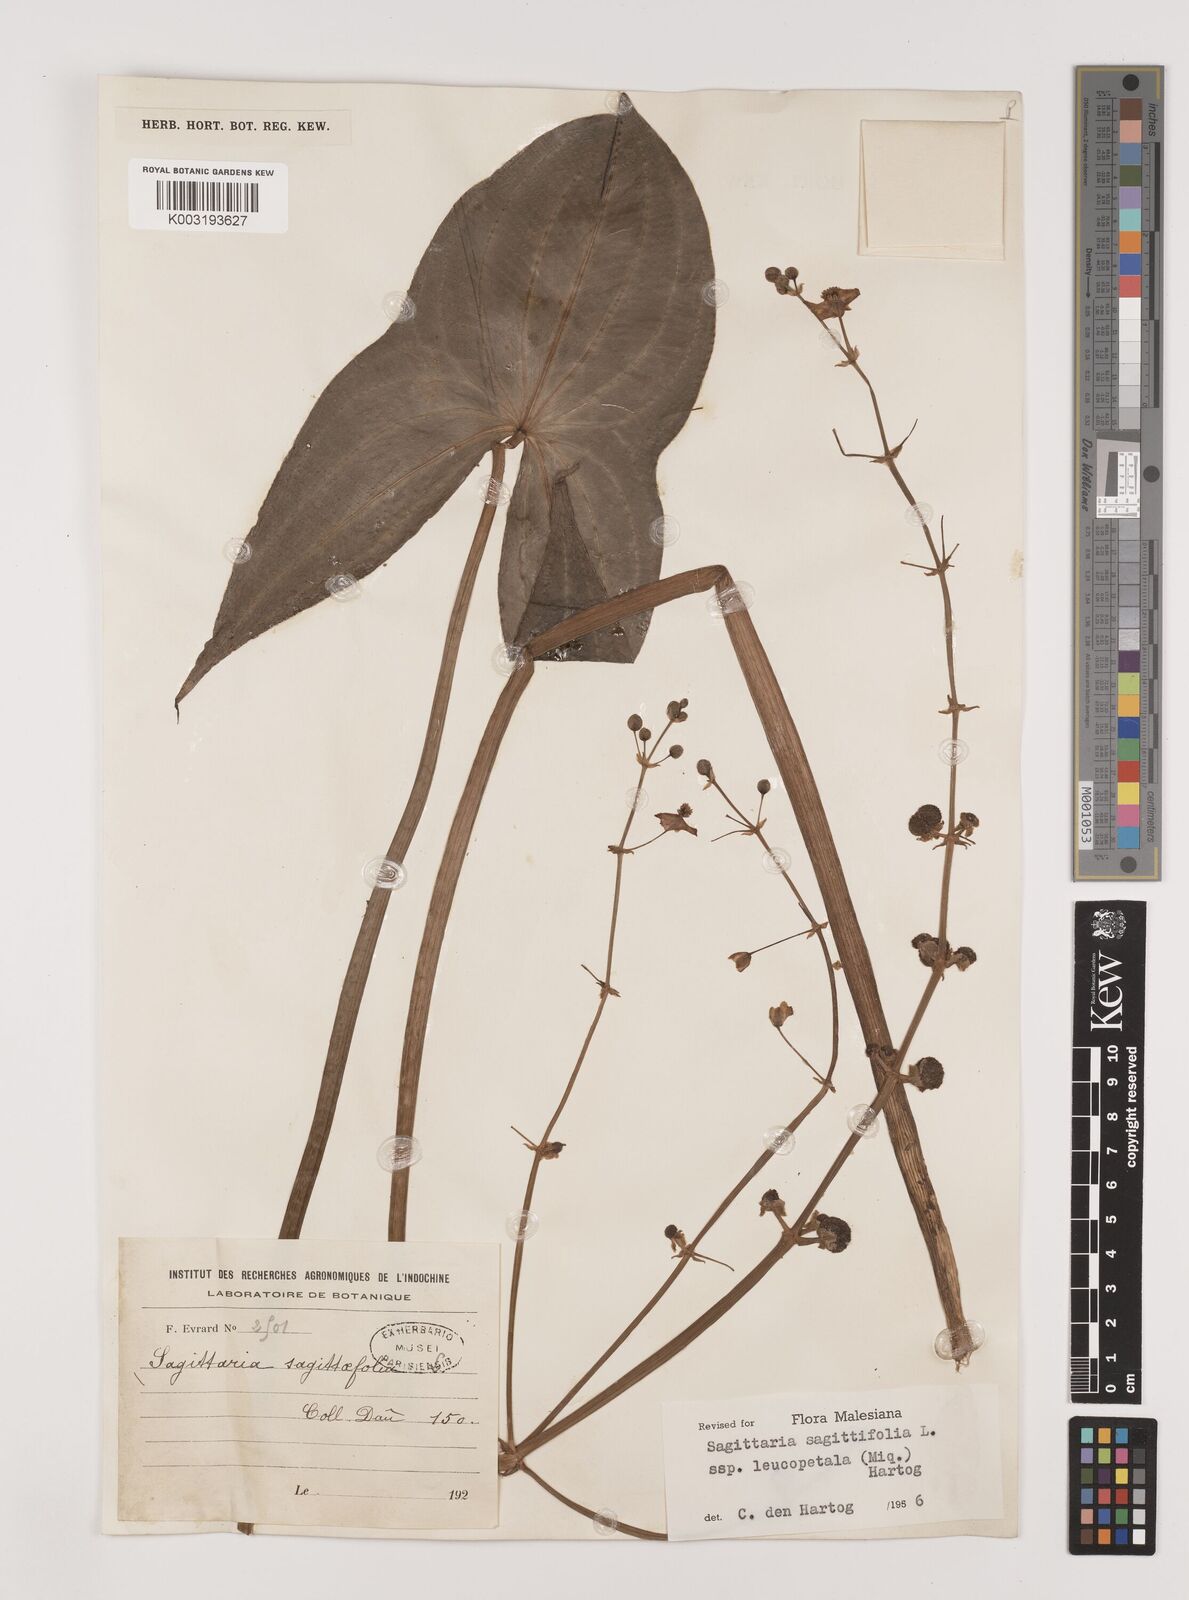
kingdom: Plantae
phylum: Tracheophyta
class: Liliopsida
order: Alismatales
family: Alismataceae
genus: Sagittaria
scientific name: Sagittaria sagittifolia
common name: Arrowhead
